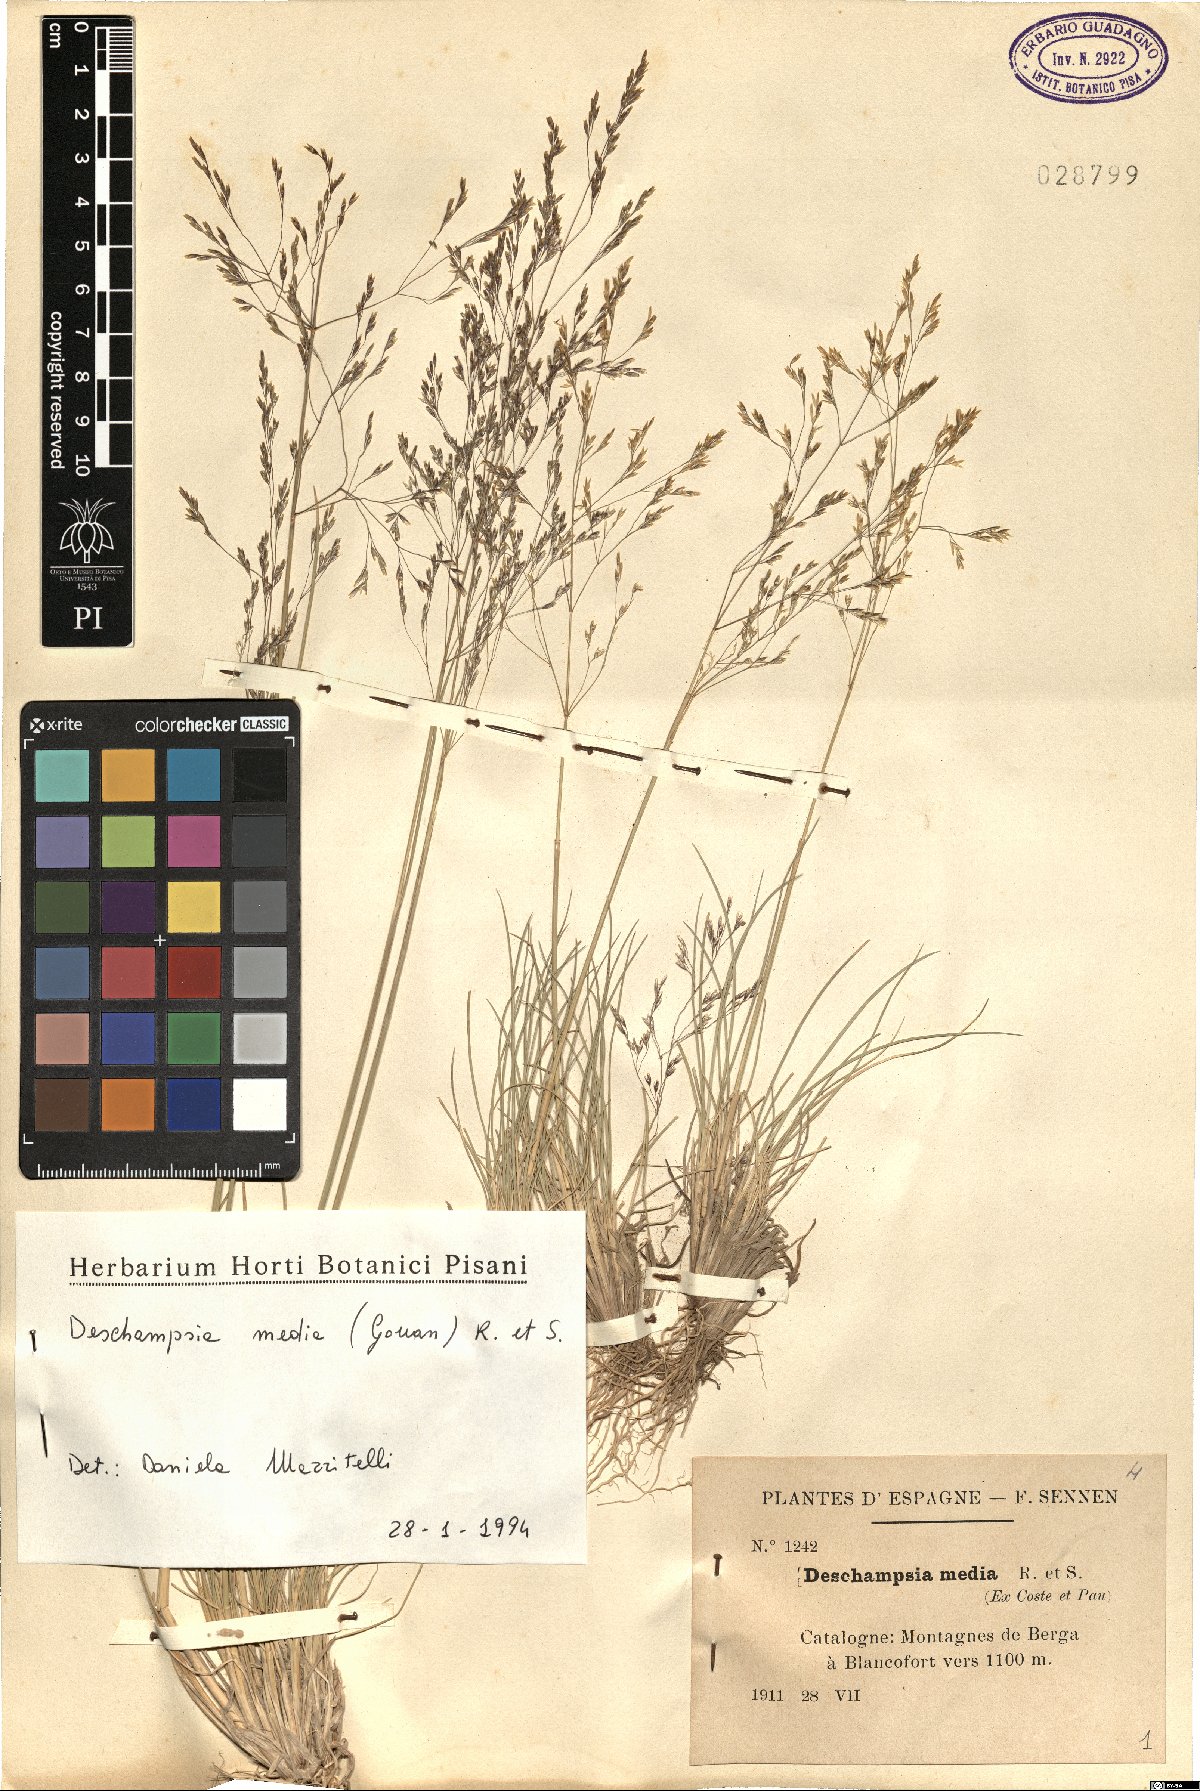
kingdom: Plantae
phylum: Tracheophyta
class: Liliopsida
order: Poales
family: Poaceae
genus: Deschampsia
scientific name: Deschampsia media
